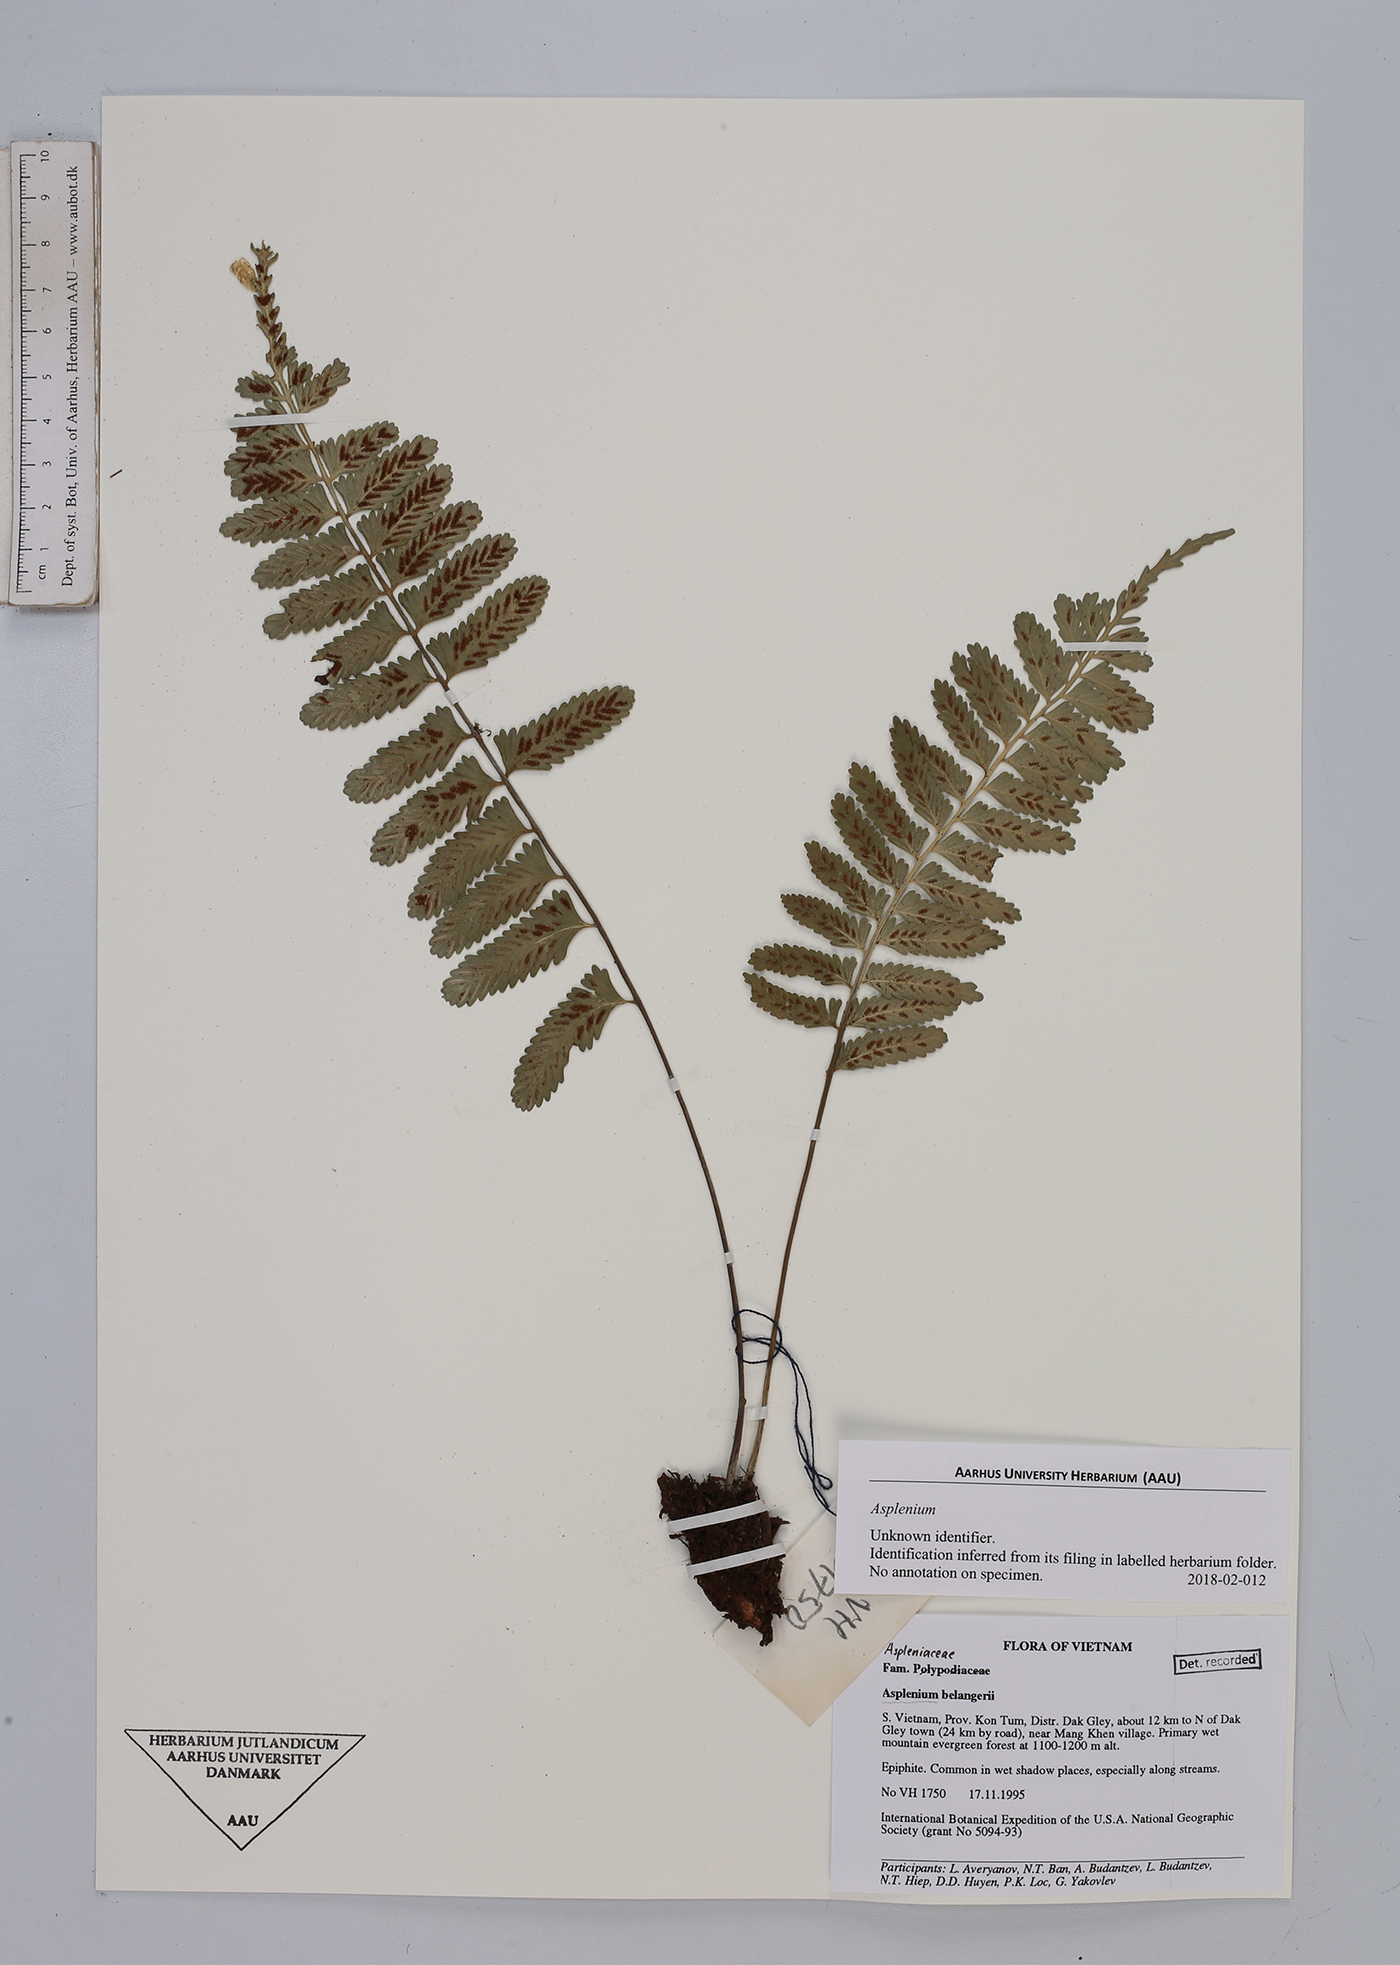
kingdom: Plantae
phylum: Tracheophyta
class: Polypodiopsida
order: Polypodiales
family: Aspleniaceae
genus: Asplenium
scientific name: Asplenium
